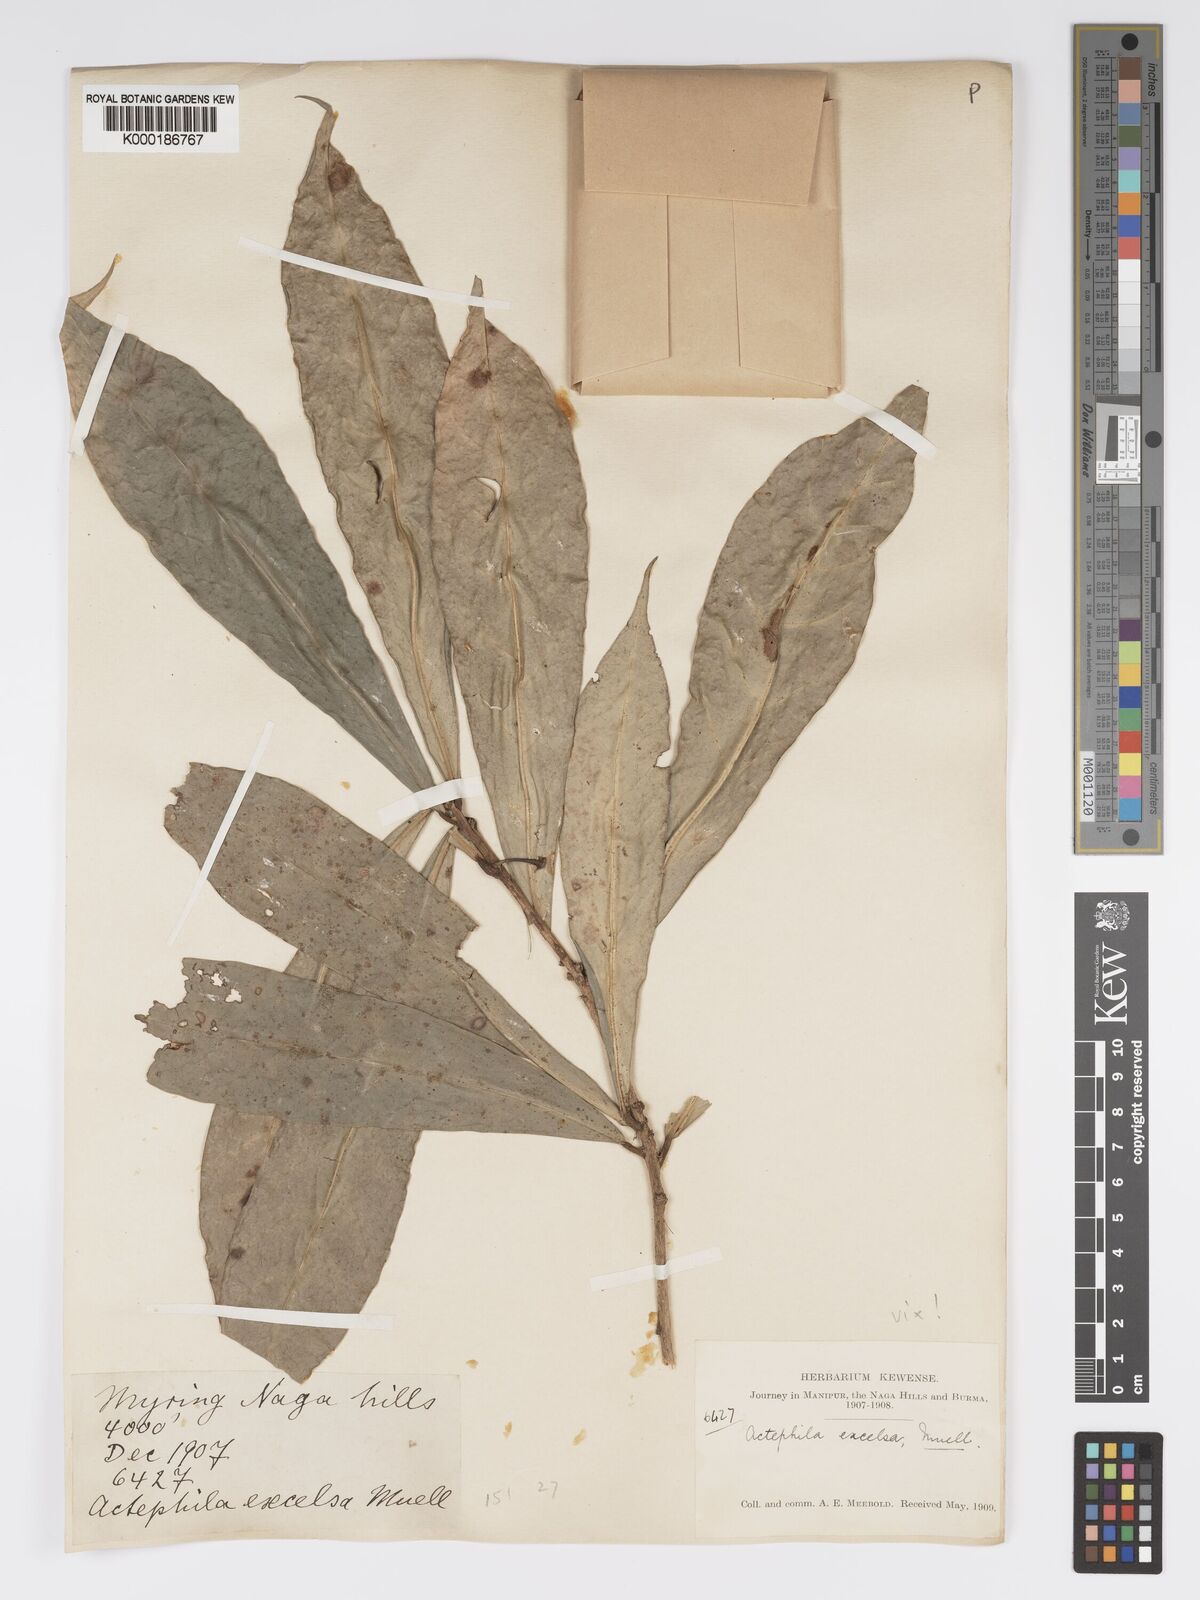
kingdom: Plantae
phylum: Tracheophyta
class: Magnoliopsida
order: Malpighiales
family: Phyllanthaceae
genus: Actephila
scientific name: Actephila excelsa
